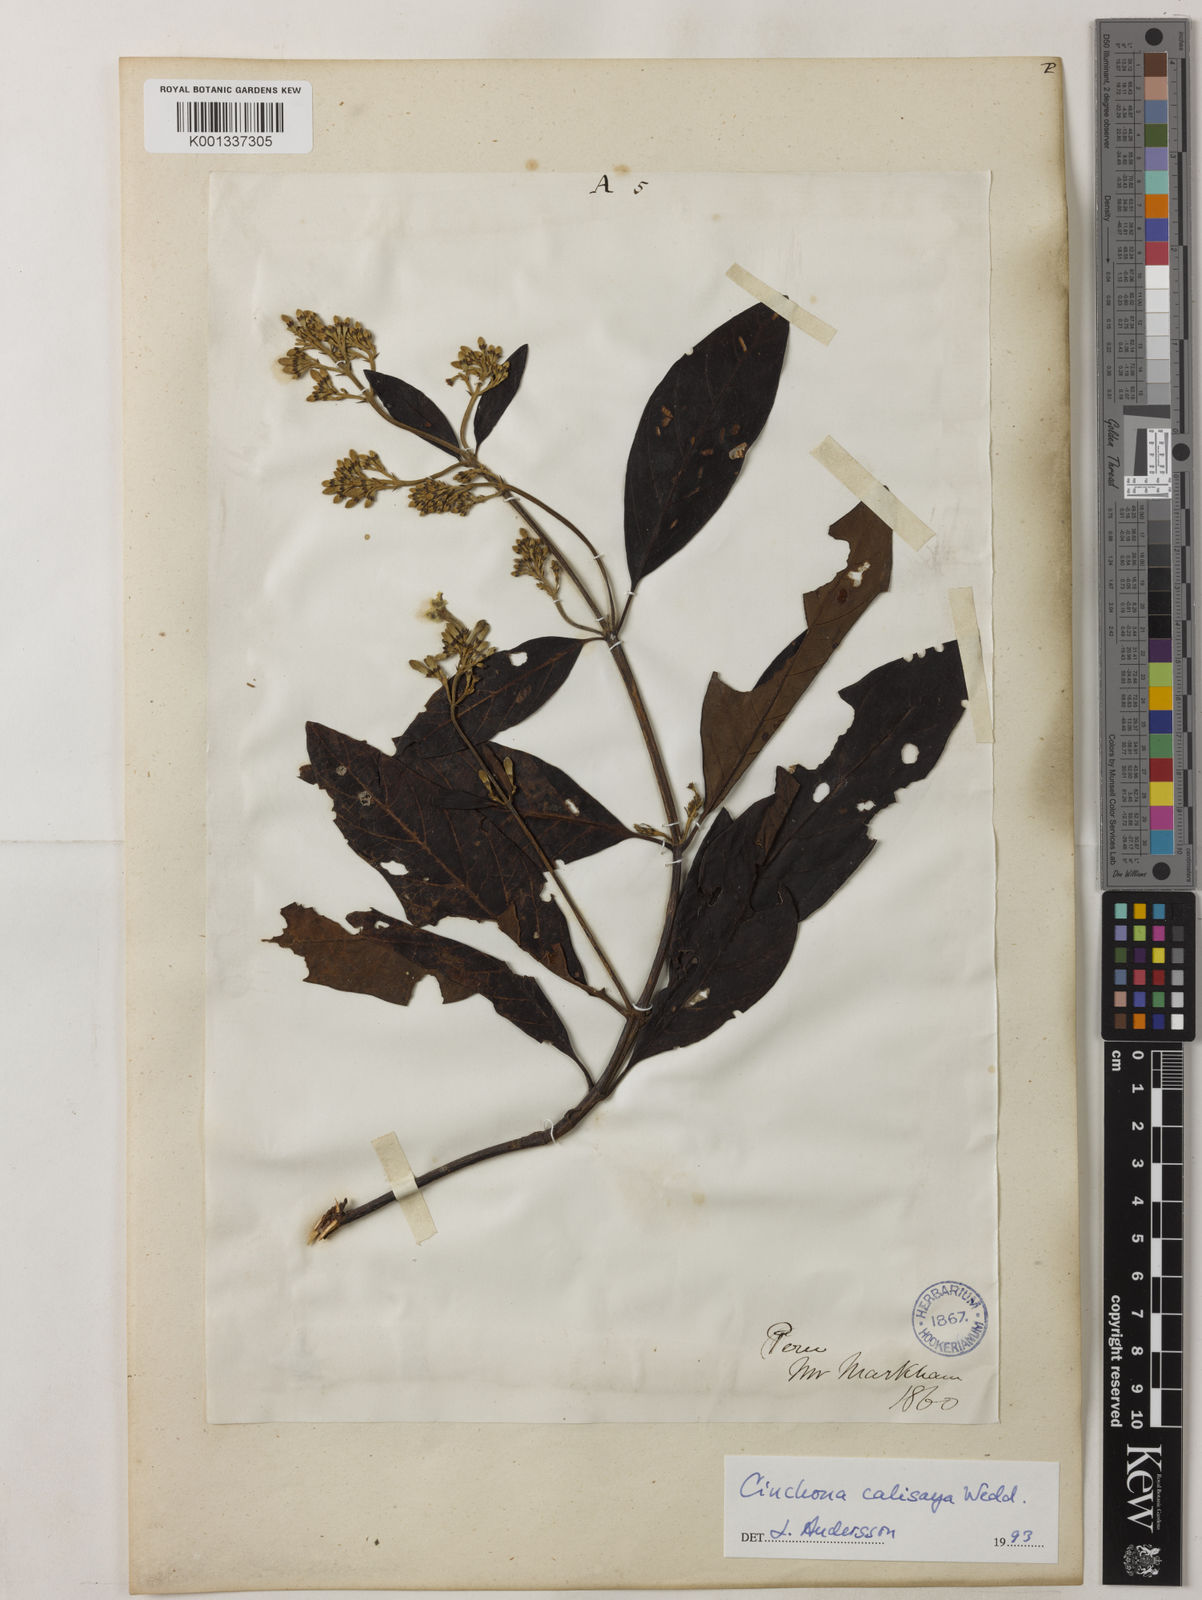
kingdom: Plantae
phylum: Tracheophyta
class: Magnoliopsida
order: Gentianales
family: Rubiaceae
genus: Cinchona
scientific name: Cinchona calisaya
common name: Ledgerbark
